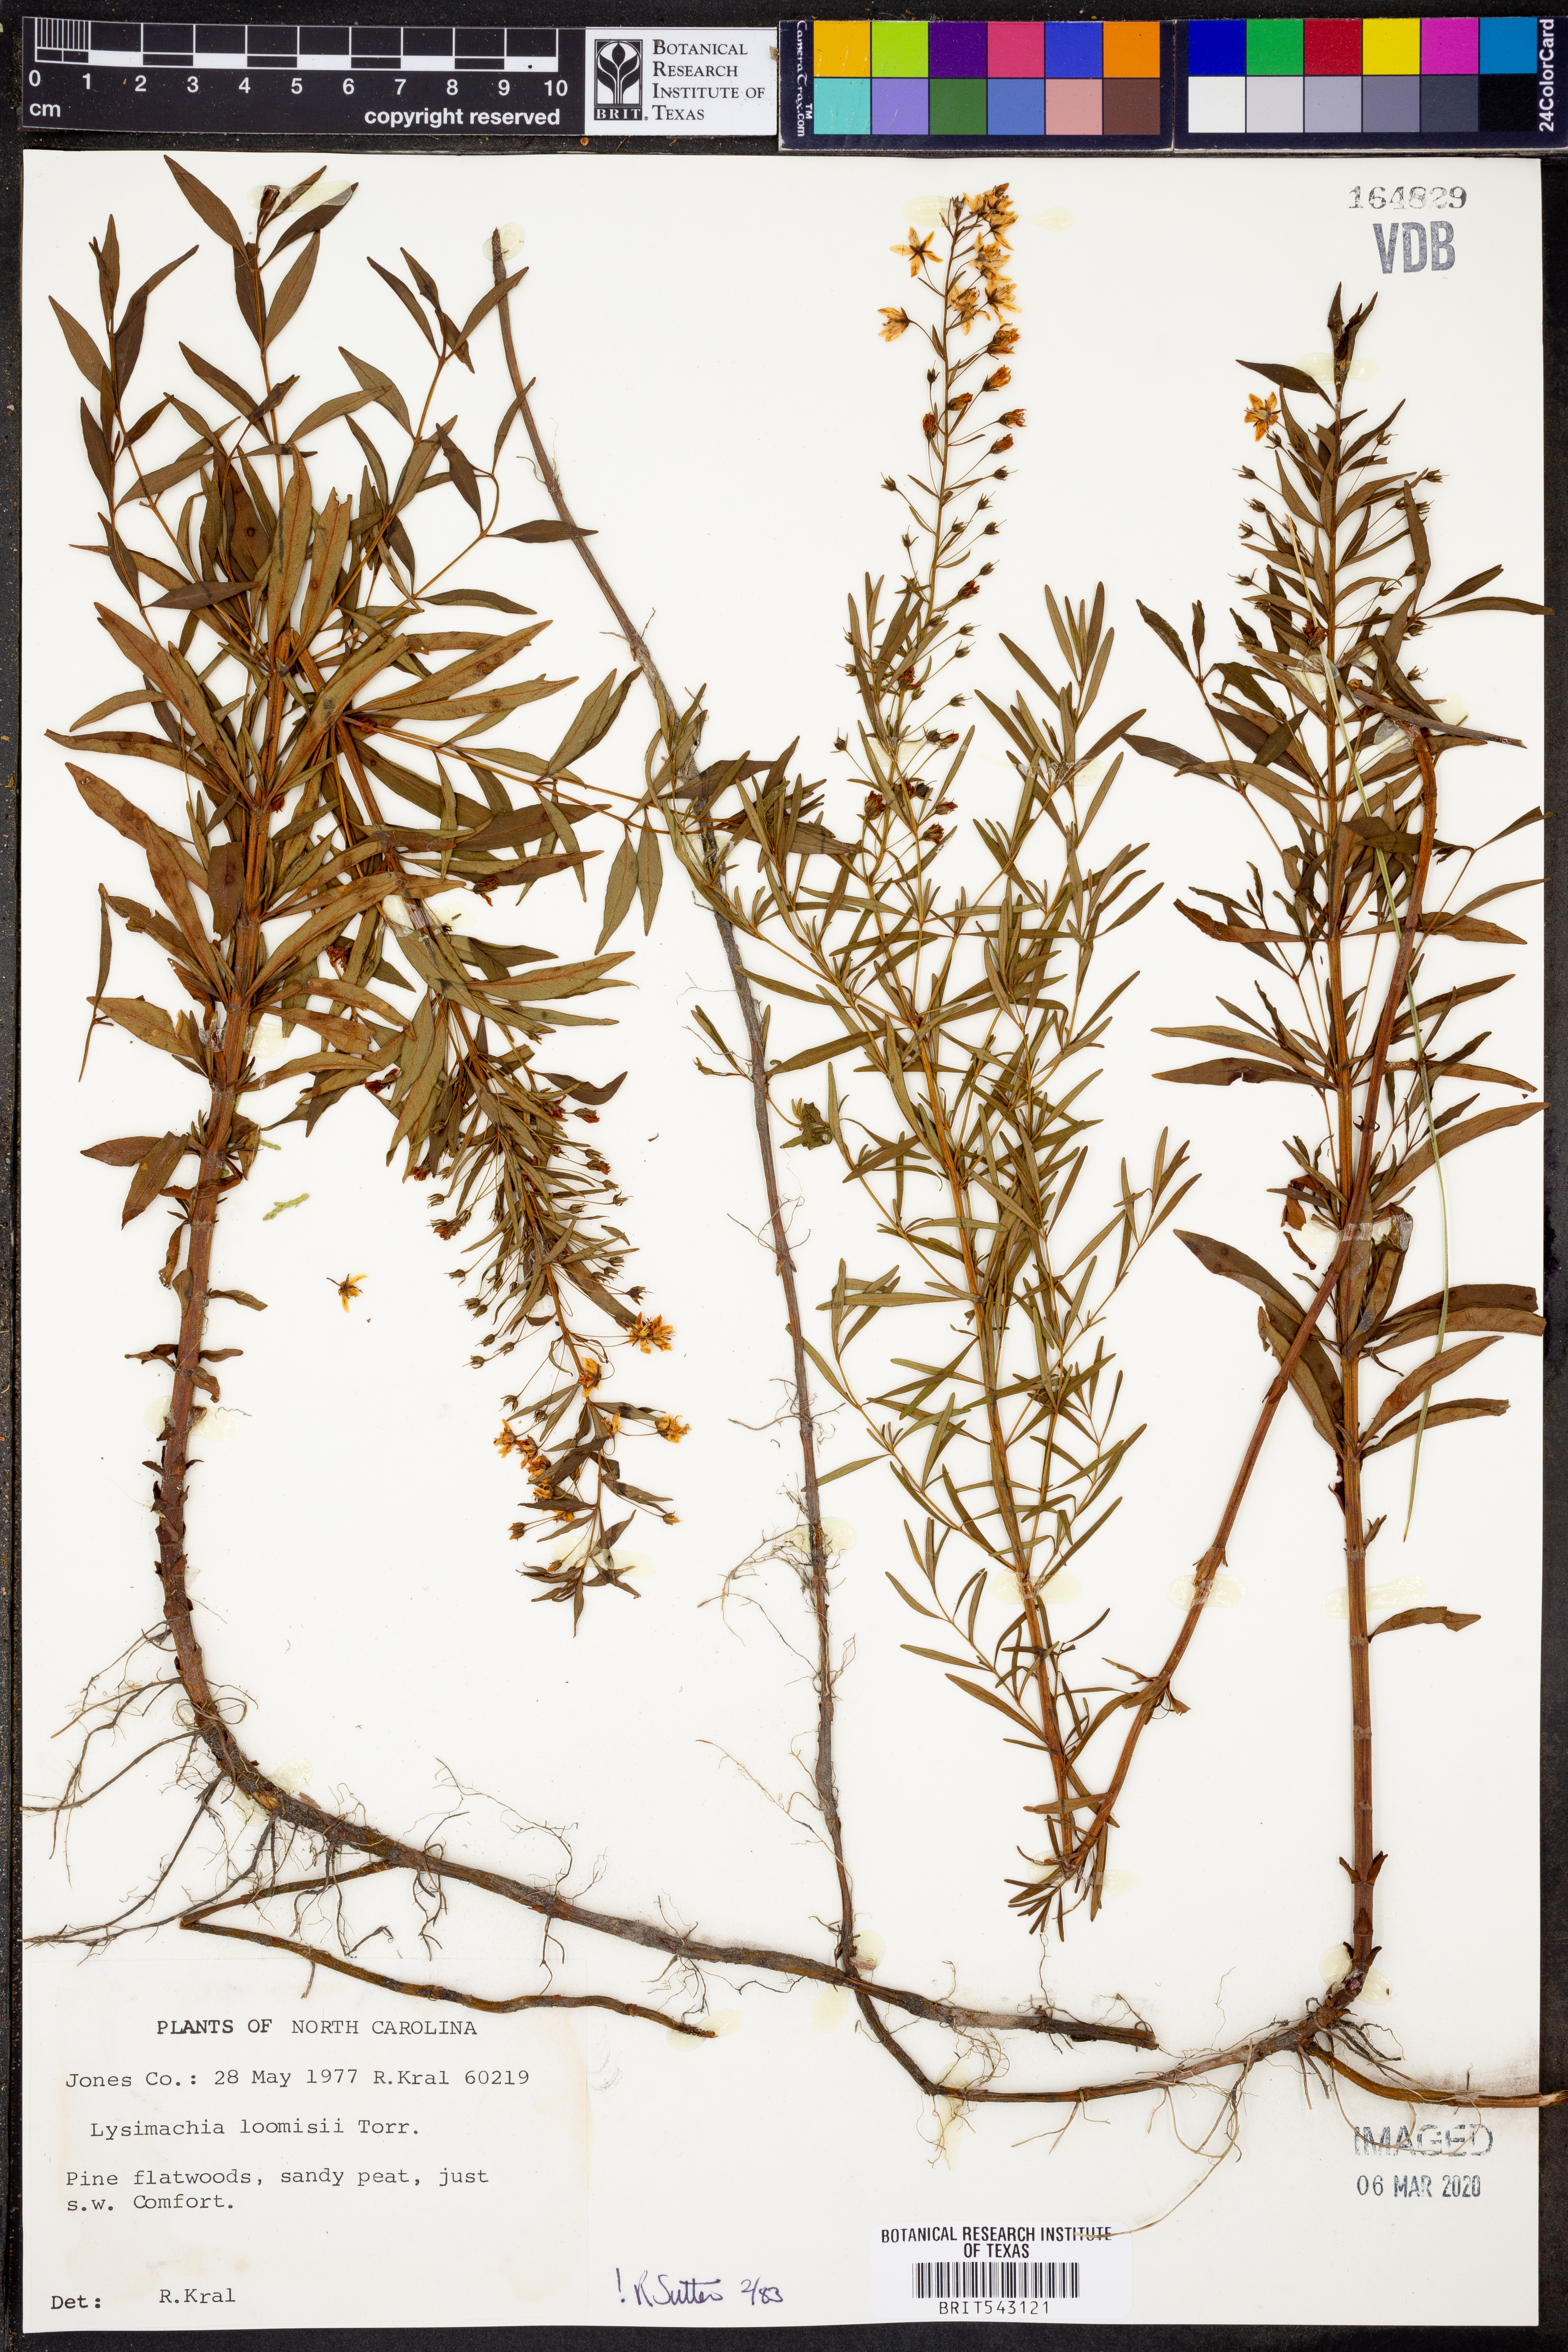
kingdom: Plantae
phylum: Tracheophyta
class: Magnoliopsida
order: Ericales
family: Primulaceae
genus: Lysimachia
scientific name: Lysimachia loomisii
